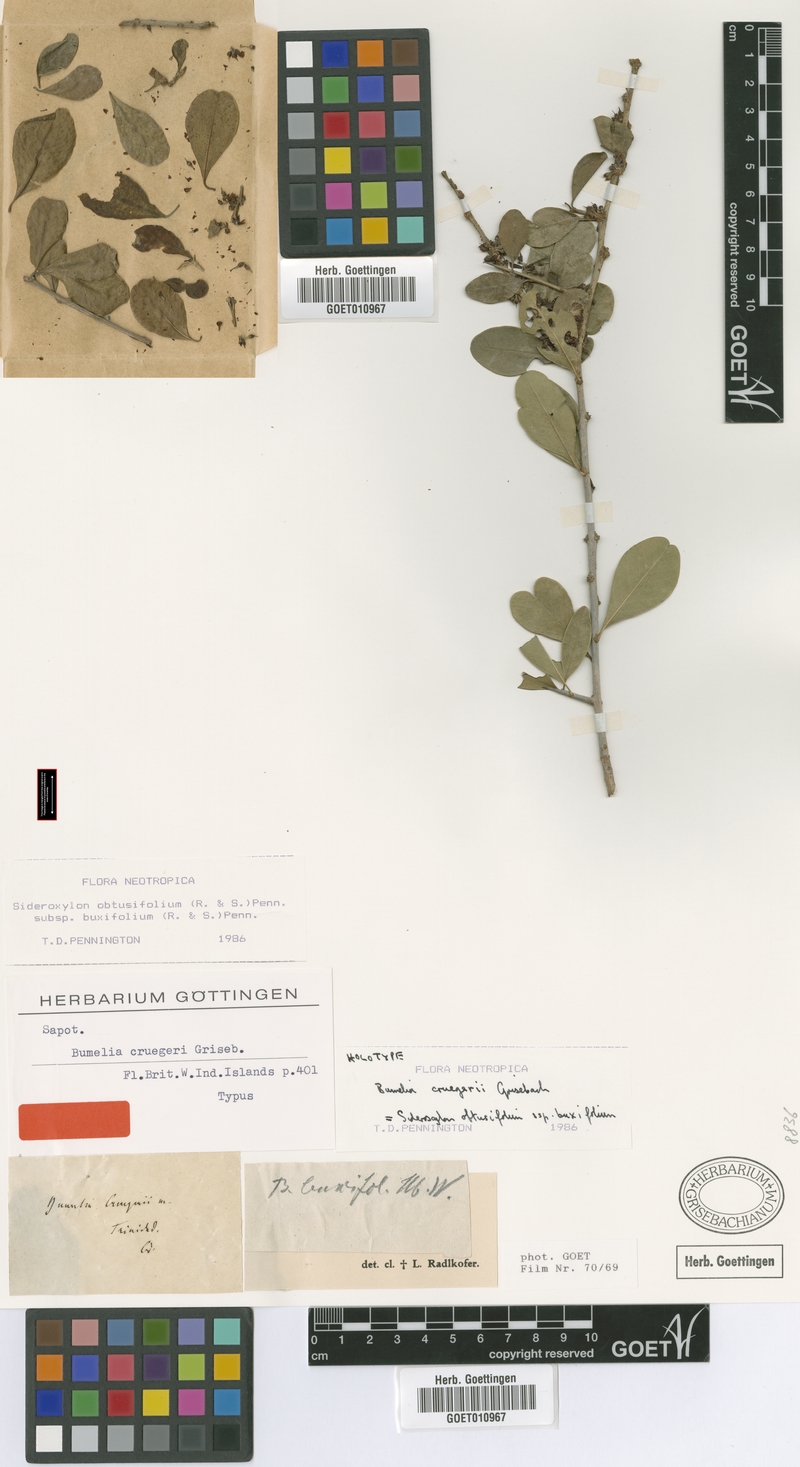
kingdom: Plantae
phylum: Tracheophyta
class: Magnoliopsida
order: Ericales
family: Sapotaceae
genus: Sideroxylon
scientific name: Sideroxylon obtusifolium
